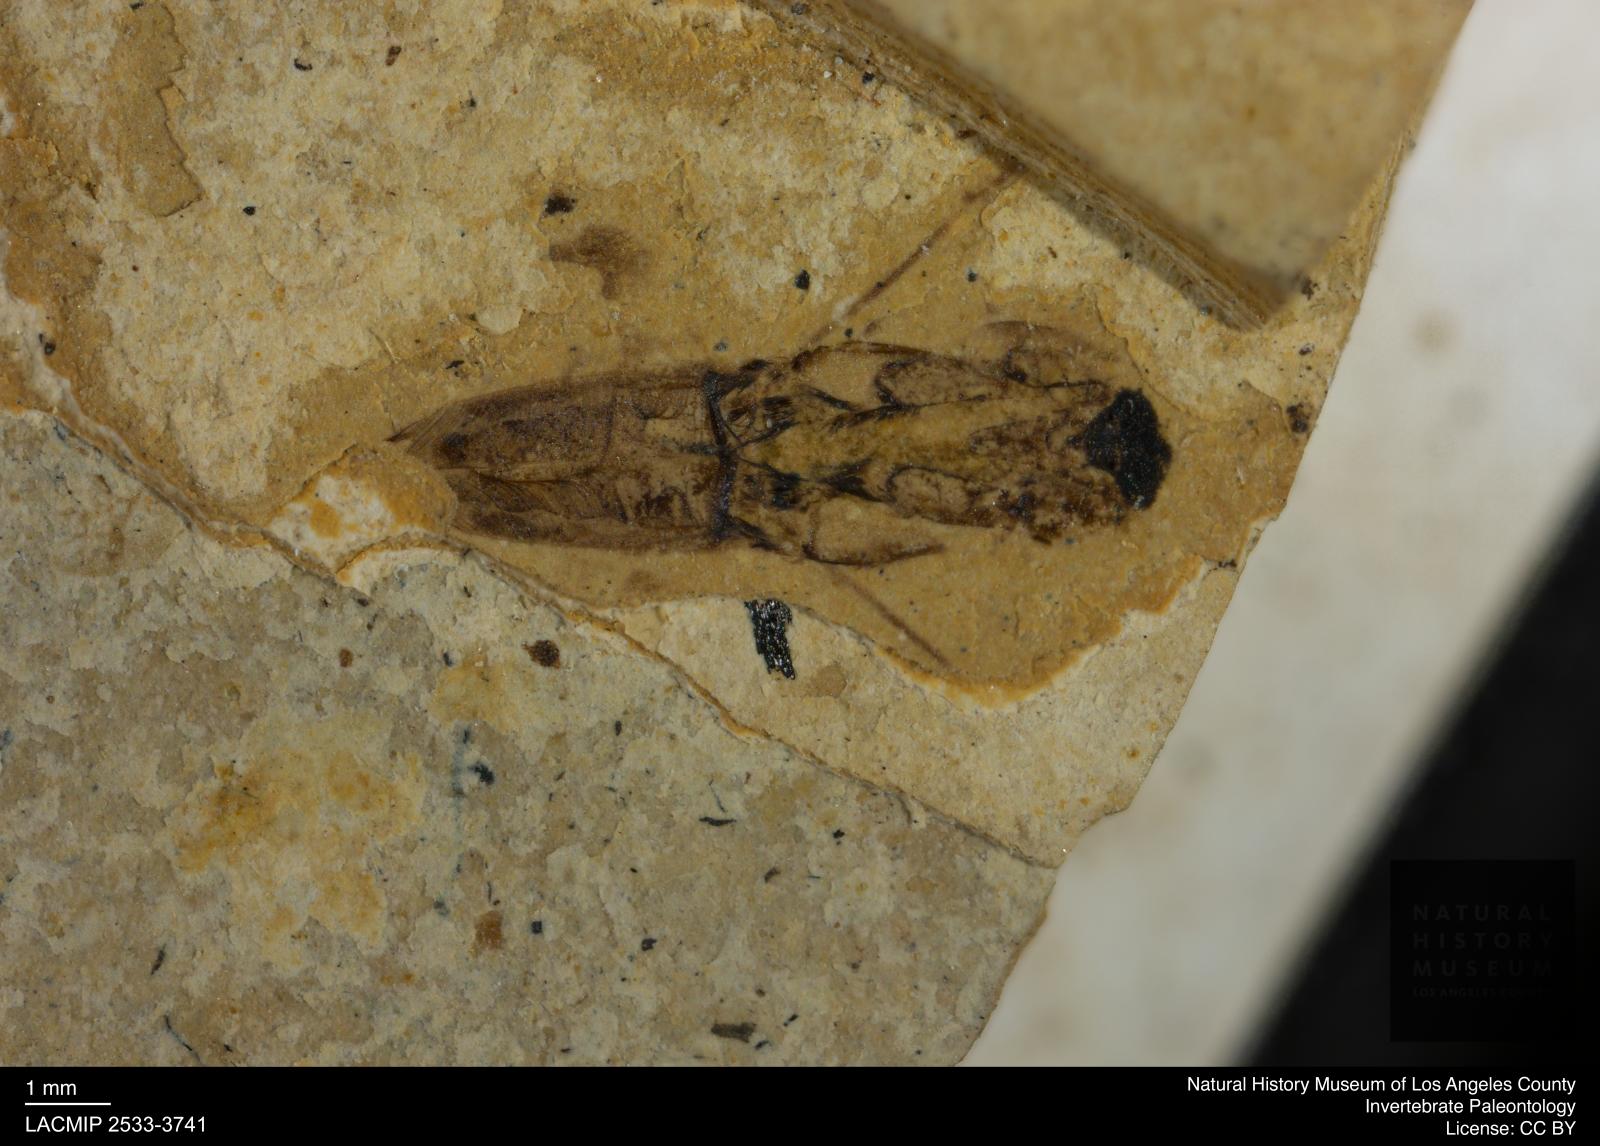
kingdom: Animalia
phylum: Arthropoda
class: Insecta
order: Hemiptera
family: Notonectidae
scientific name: Notonectidae
